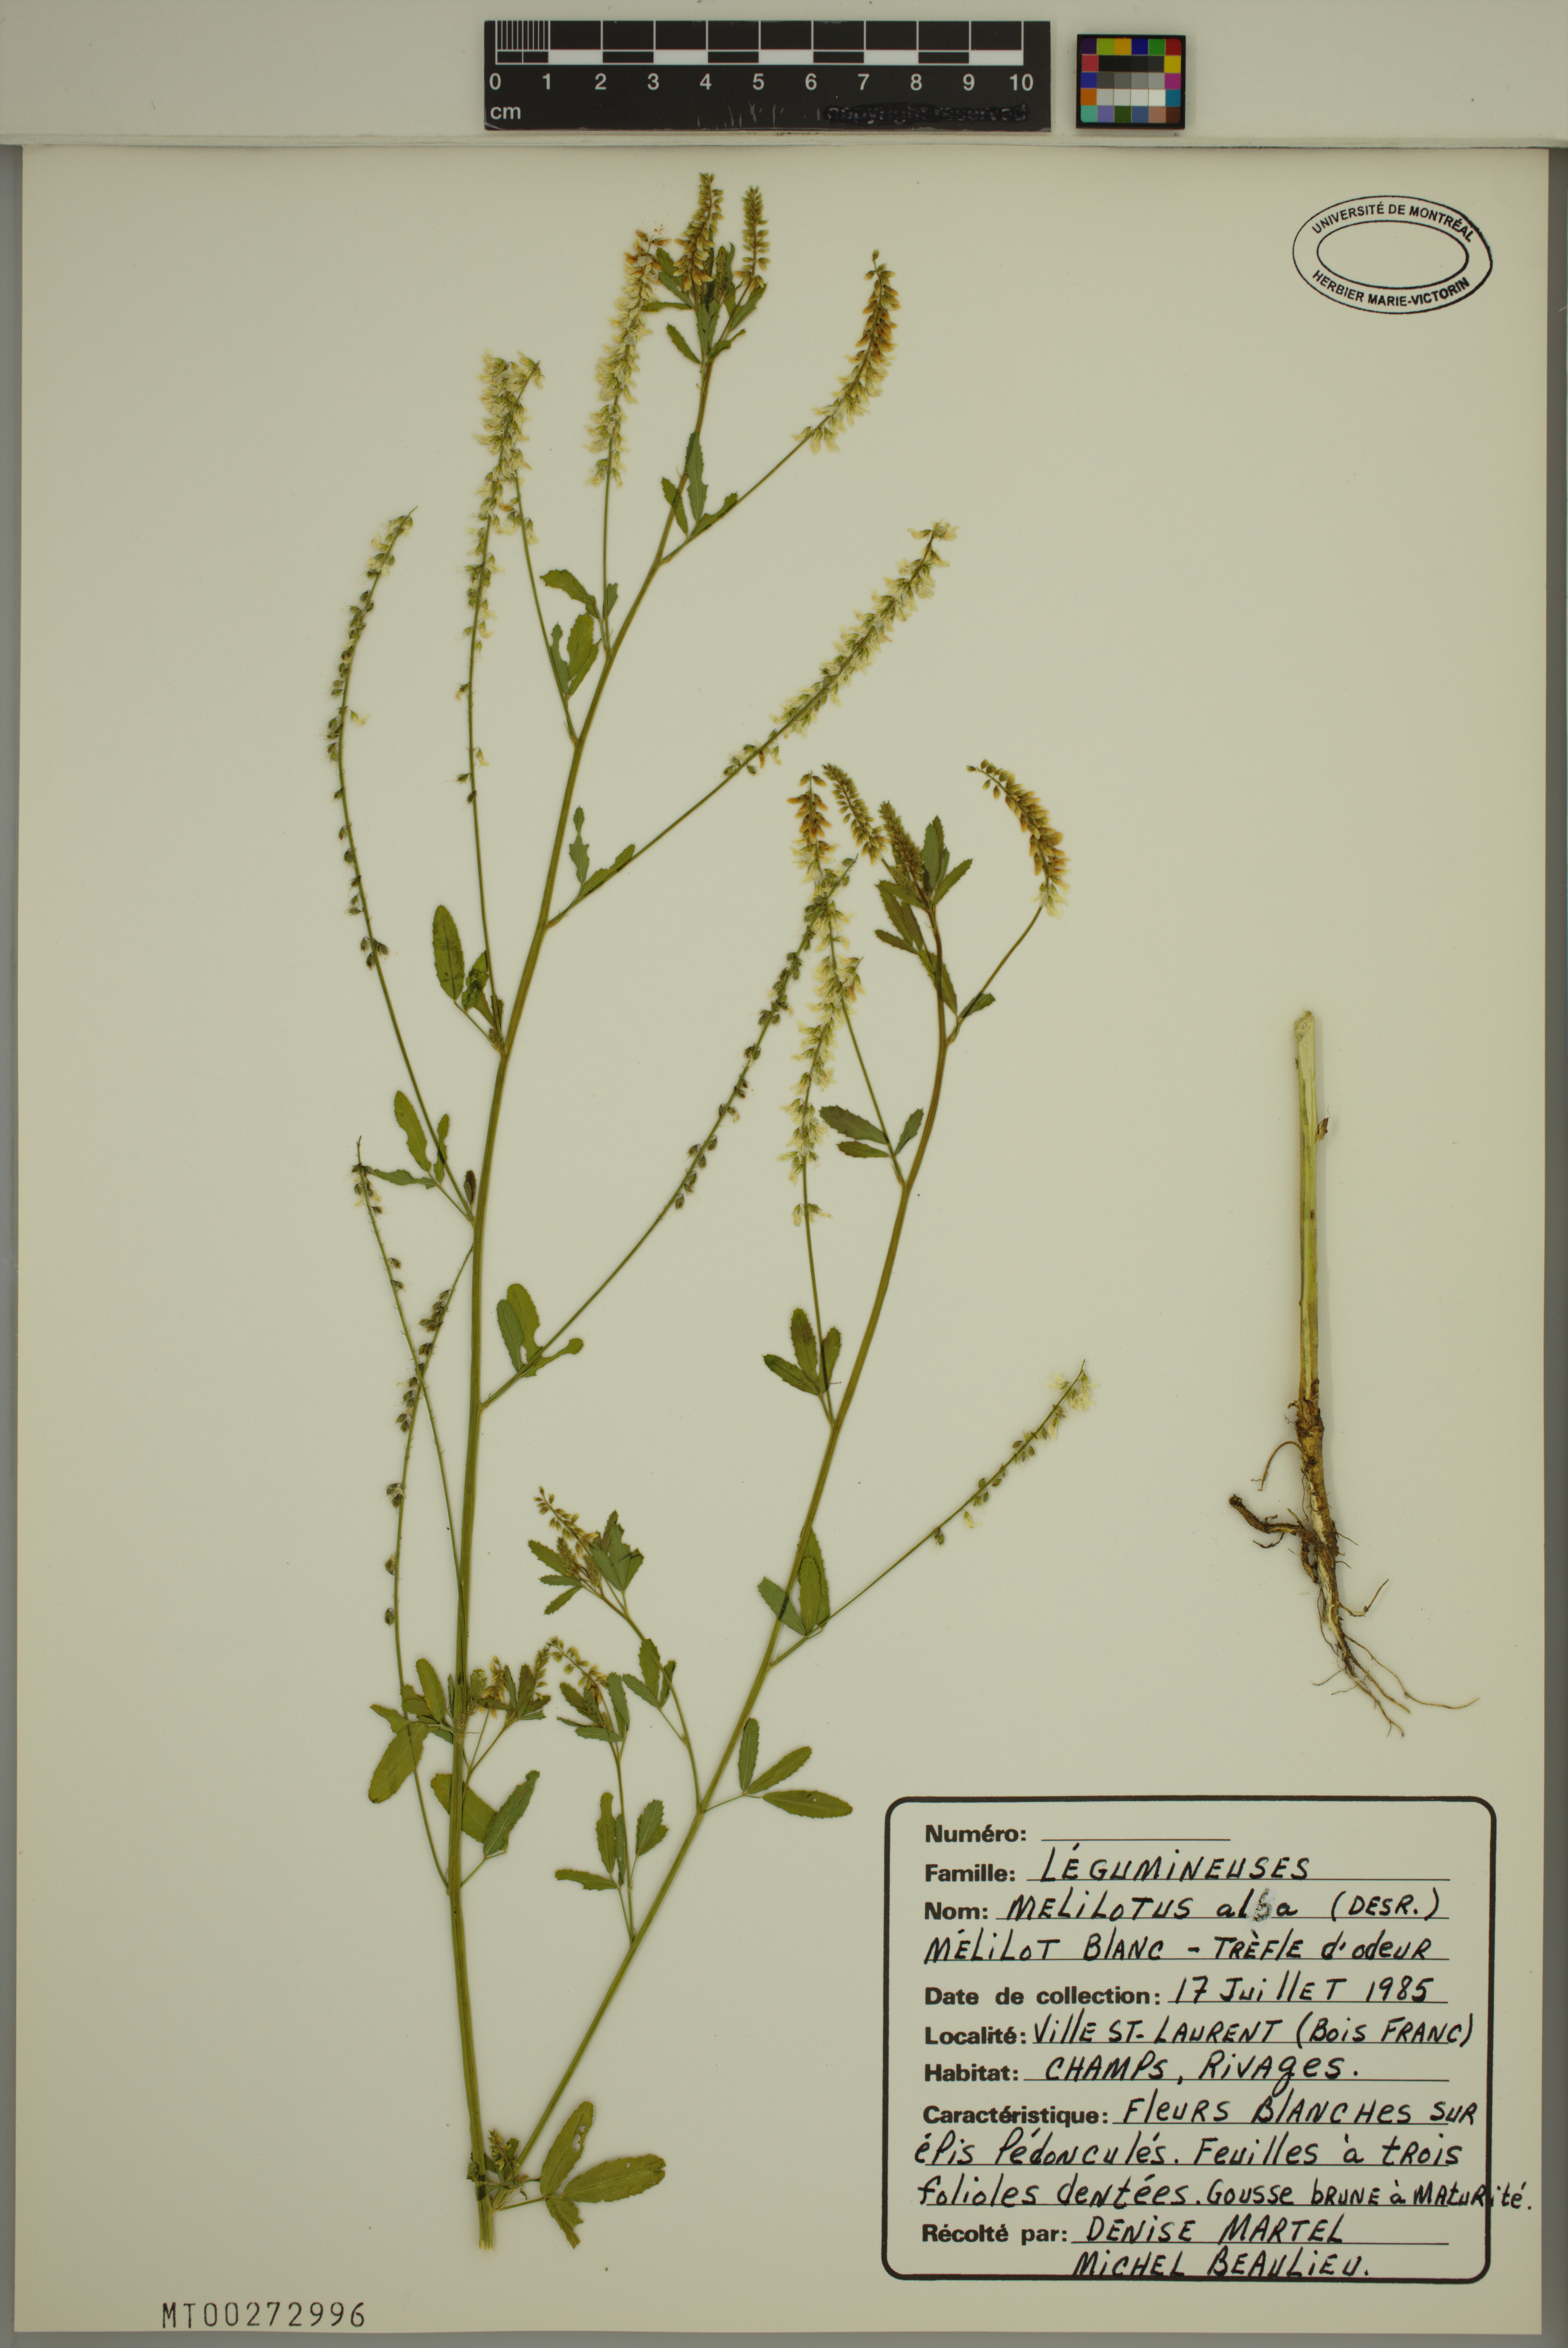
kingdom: Plantae
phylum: Tracheophyta
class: Magnoliopsida
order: Fabales
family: Fabaceae
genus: Melilotus
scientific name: Melilotus albus
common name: White melilot
